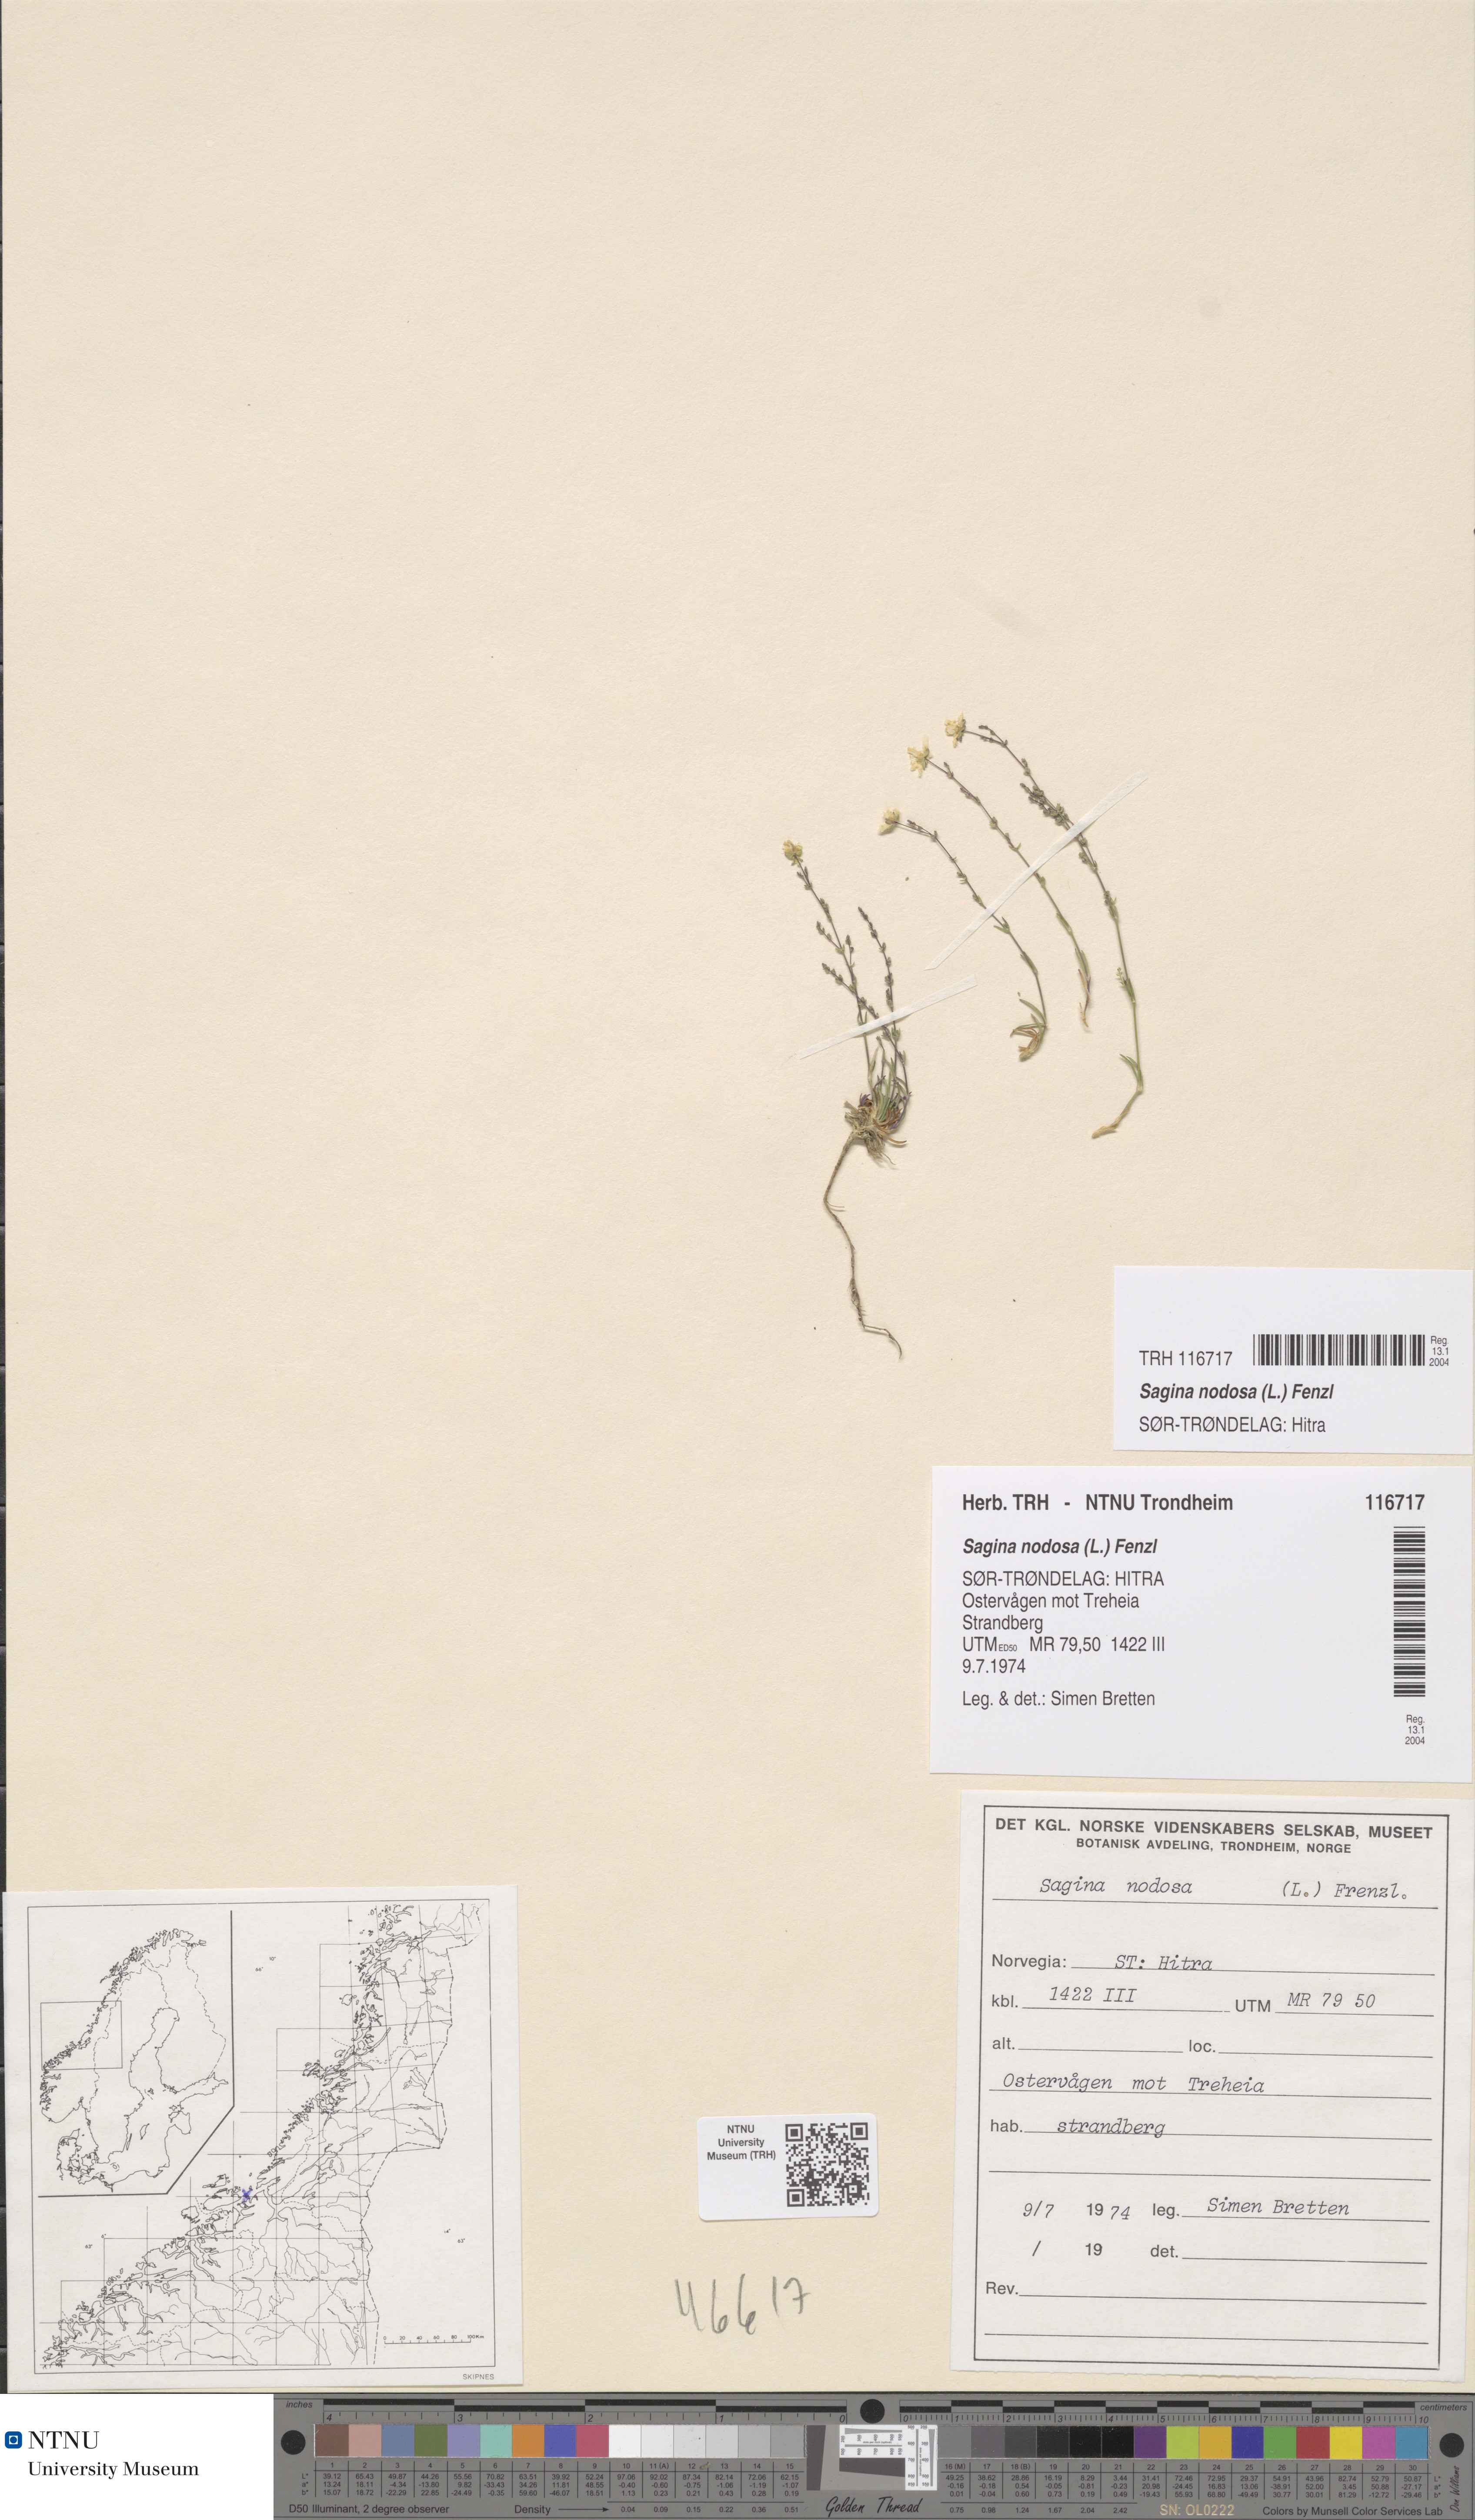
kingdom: Plantae
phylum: Tracheophyta
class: Magnoliopsida
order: Caryophyllales
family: Caryophyllaceae
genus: Sagina
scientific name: Sagina nodosa
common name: Knotted pearlwort
